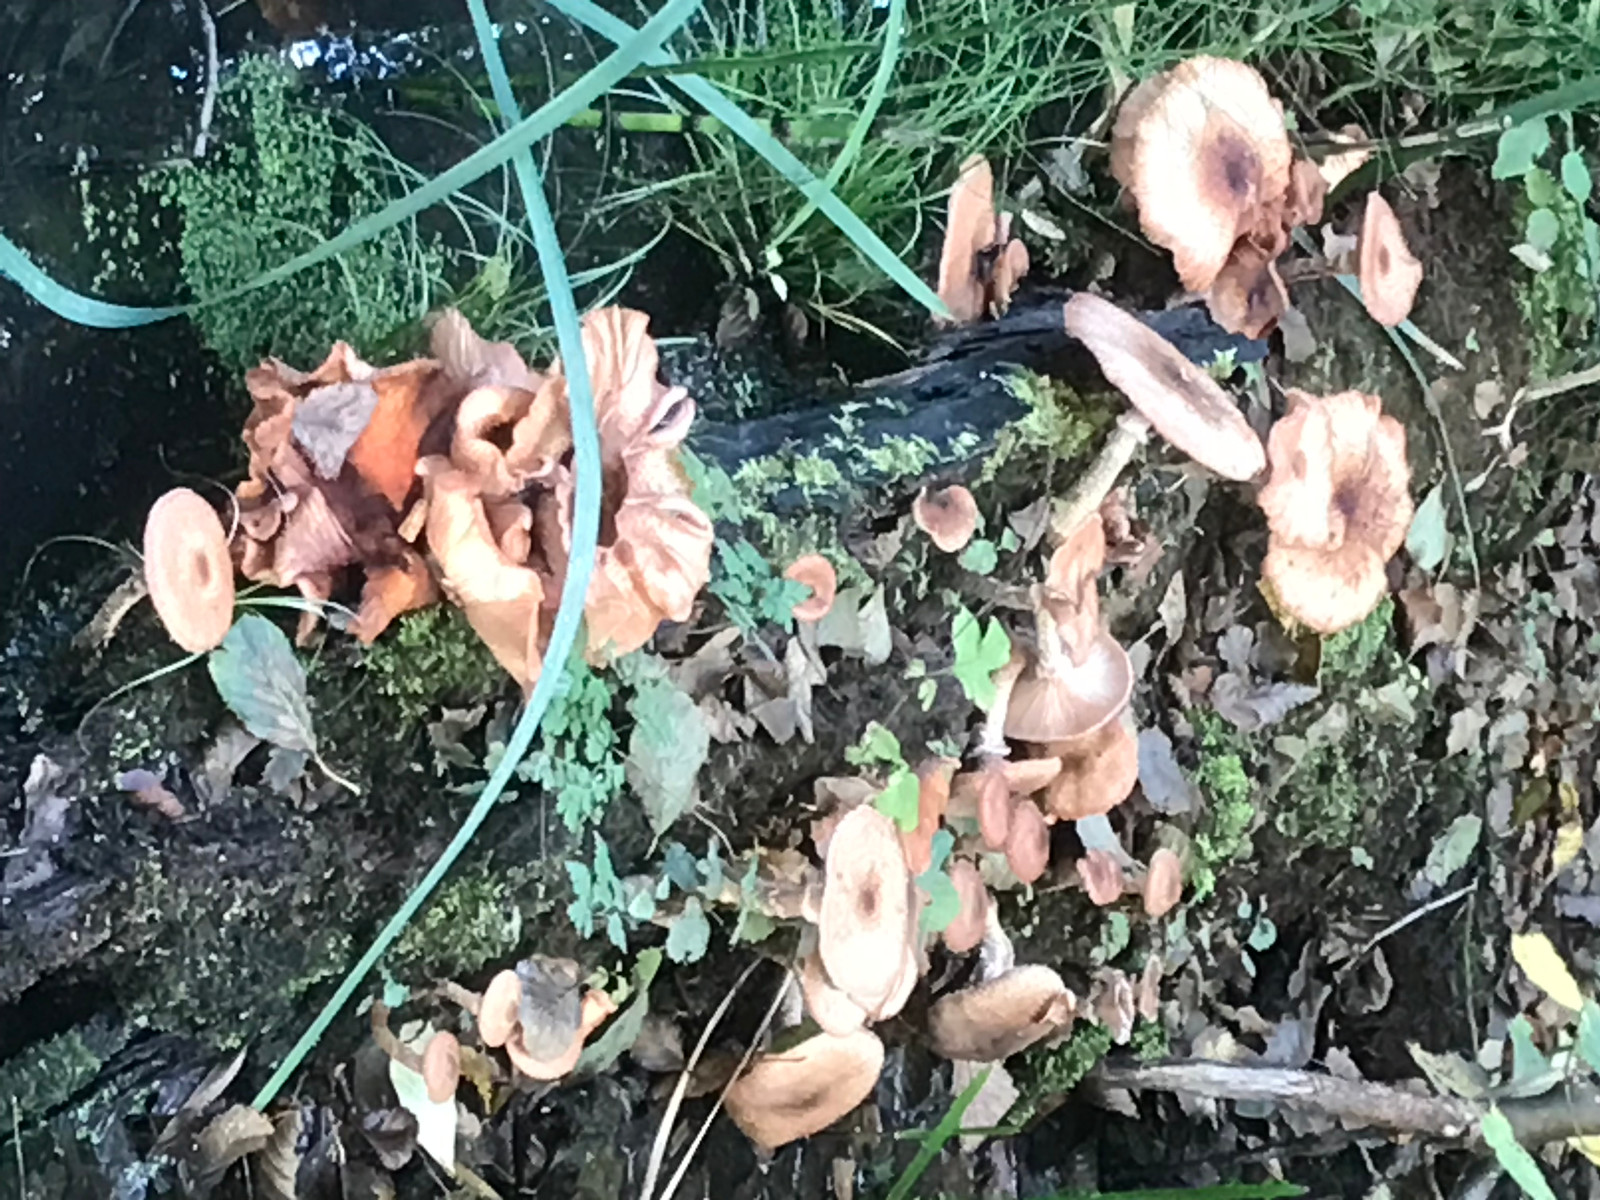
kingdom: Fungi
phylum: Basidiomycota
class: Agaricomycetes
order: Agaricales
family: Physalacriaceae
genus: Armillaria
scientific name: Armillaria
